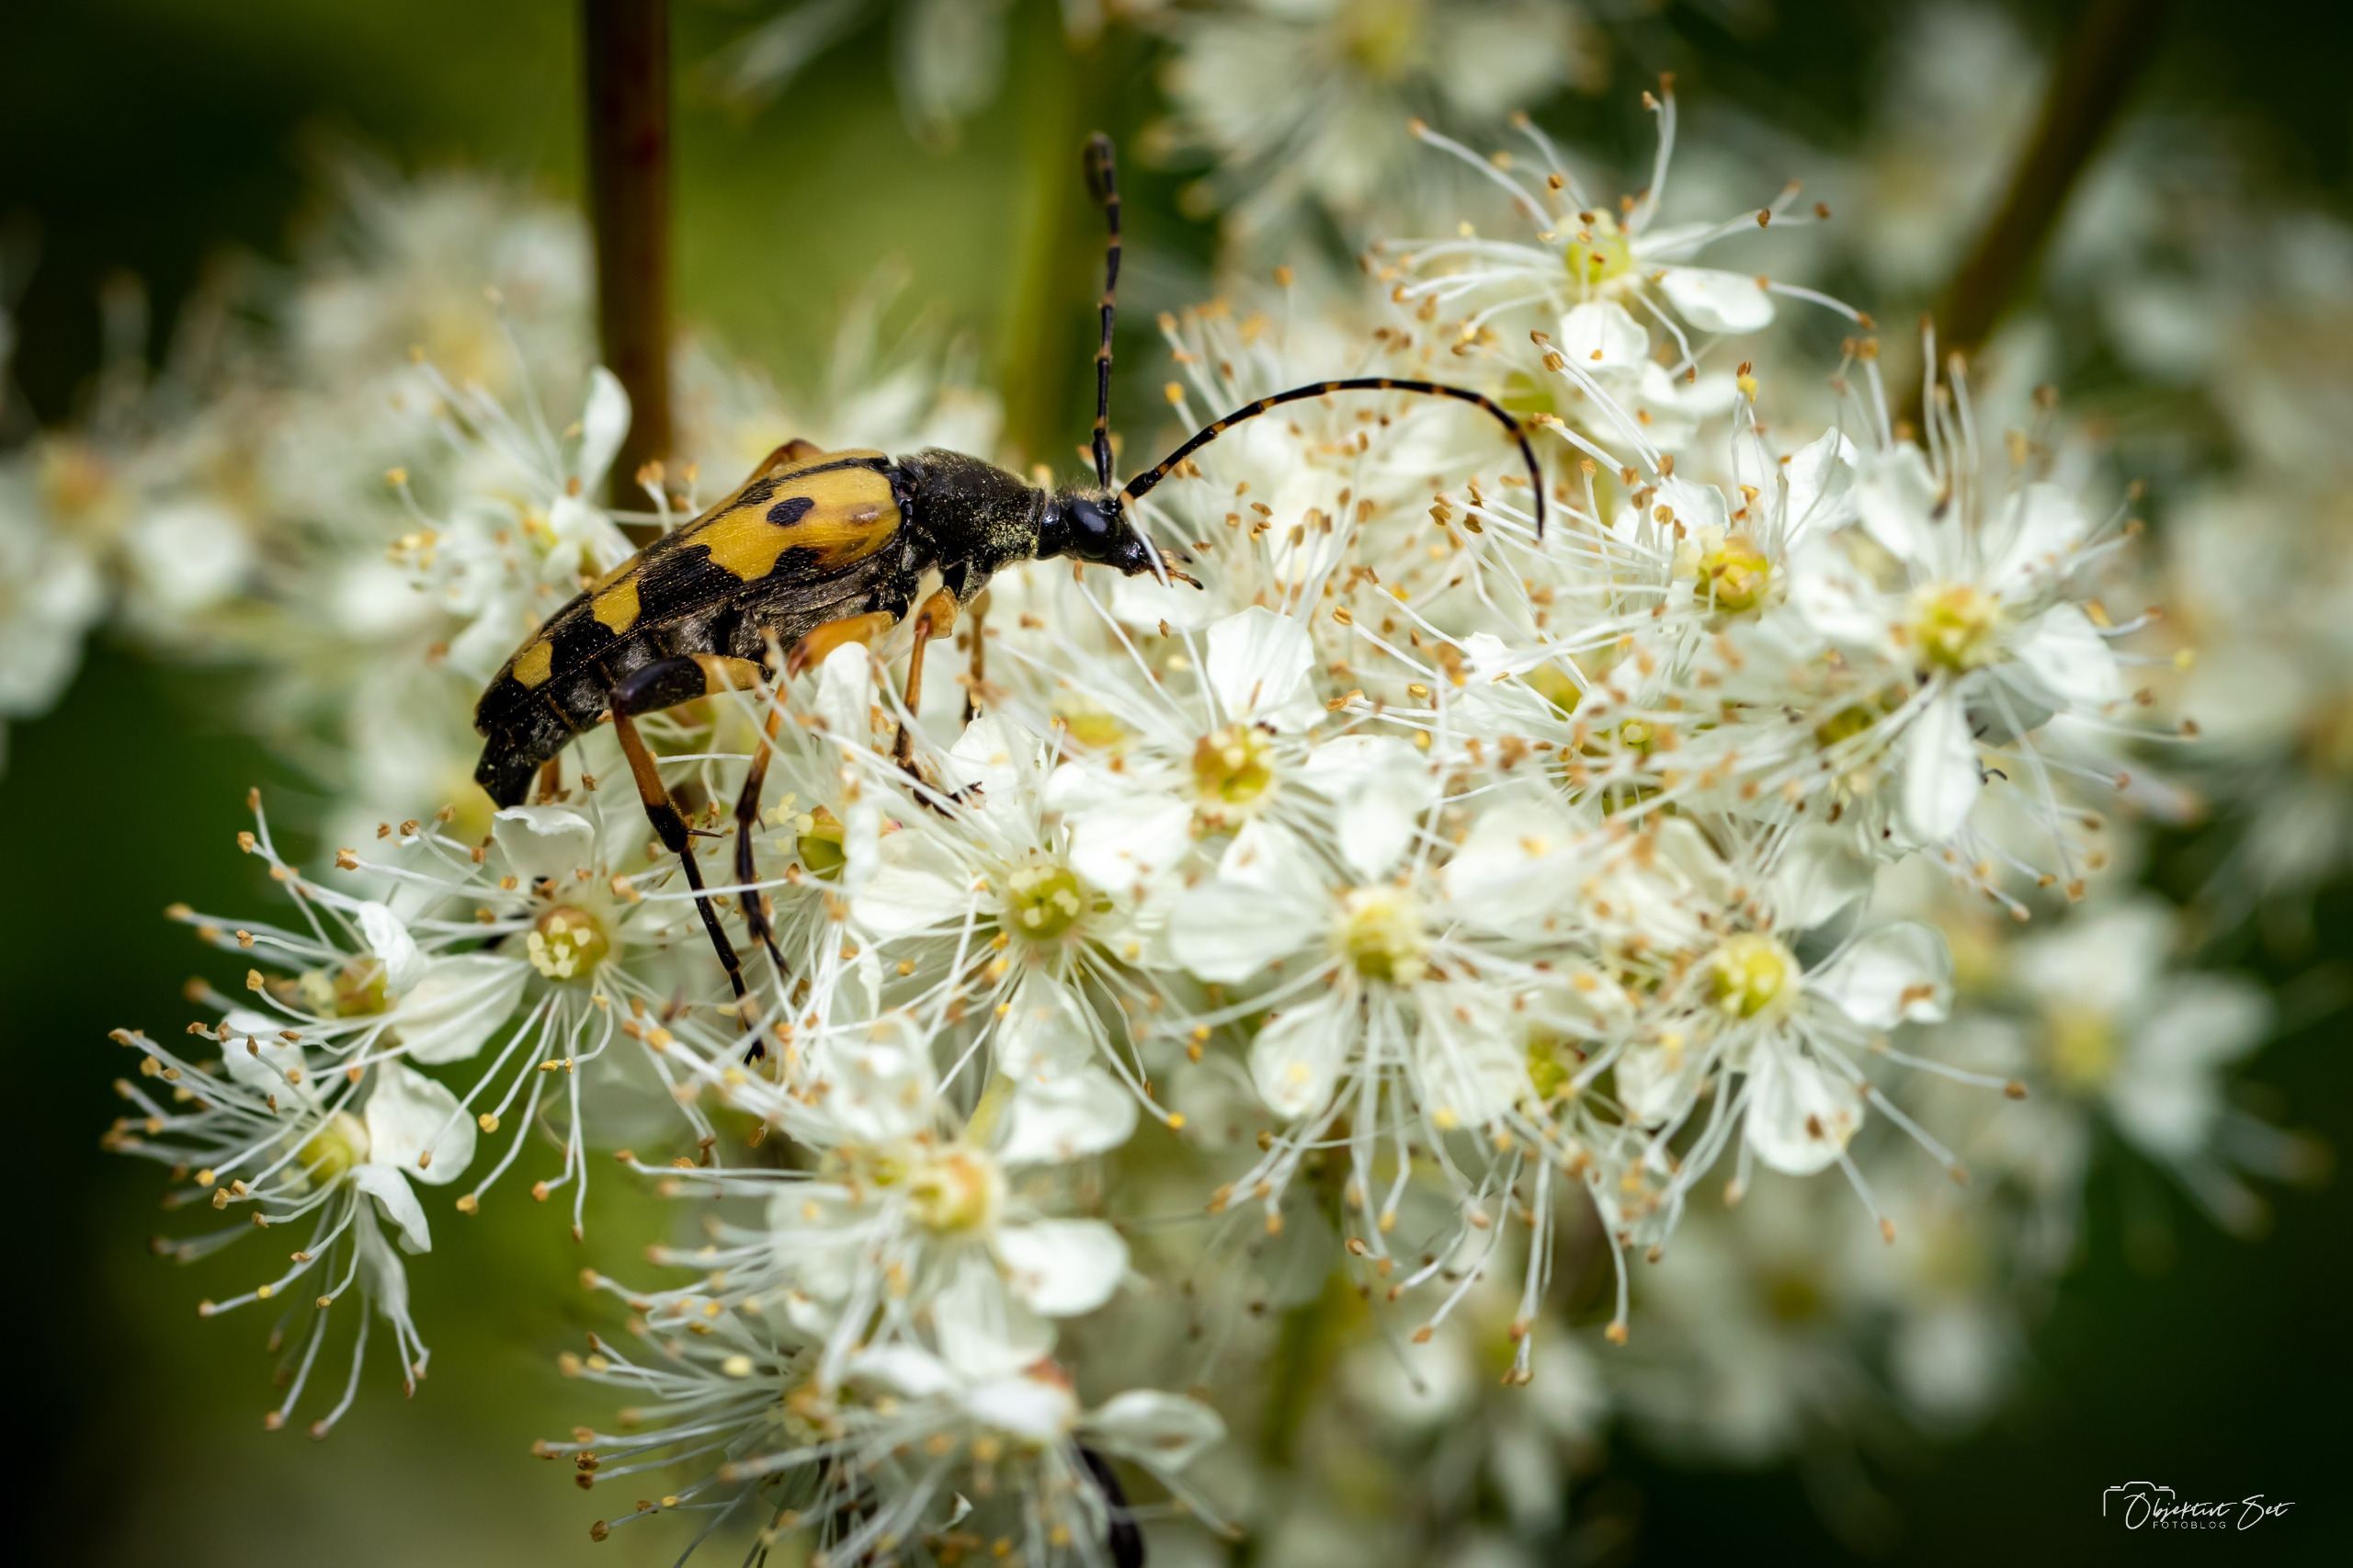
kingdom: Animalia
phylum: Arthropoda
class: Insecta
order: Coleoptera
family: Cerambycidae
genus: Rutpela
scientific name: Rutpela maculata
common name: Sydlig blomsterbuk
